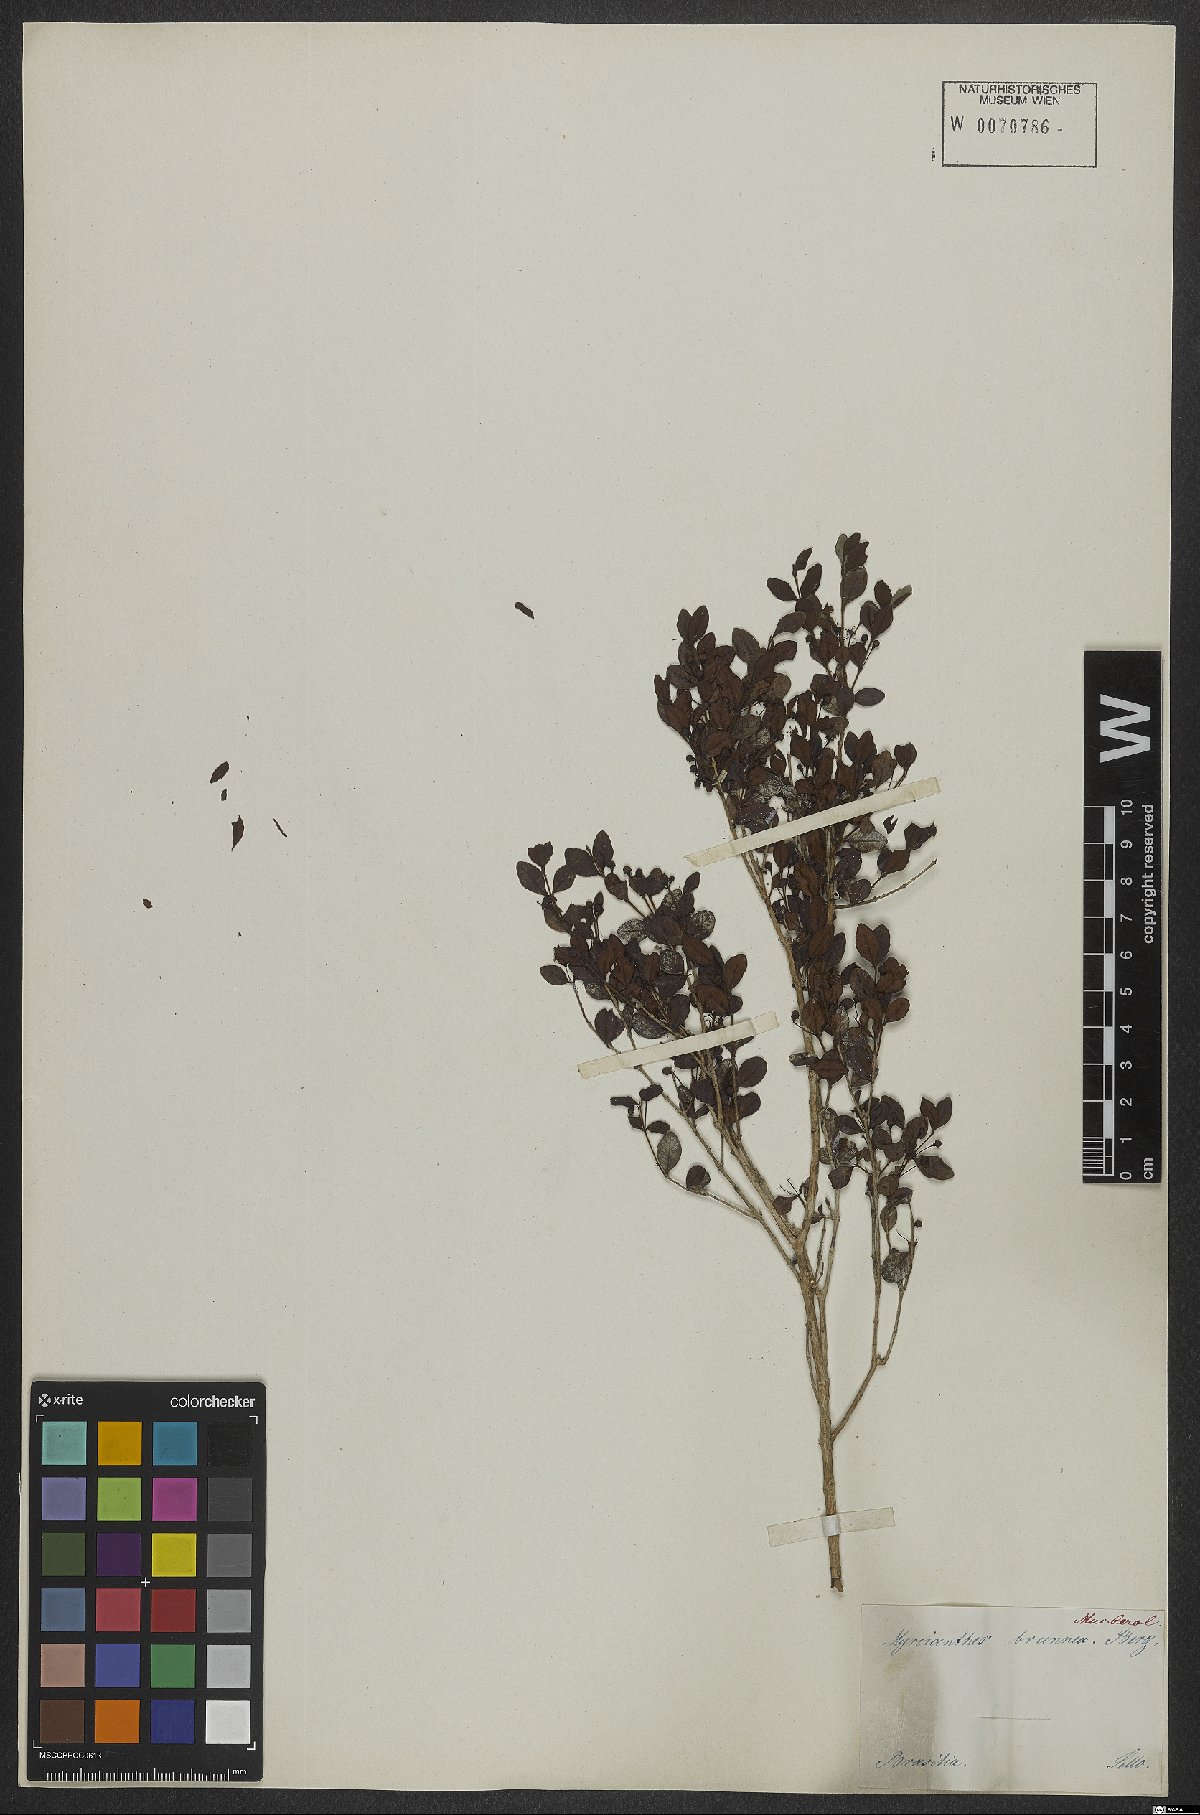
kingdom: Plantae
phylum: Tracheophyta
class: Magnoliopsida
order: Myrtales
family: Myrtaceae
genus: Psidium
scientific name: Psidium ovale
